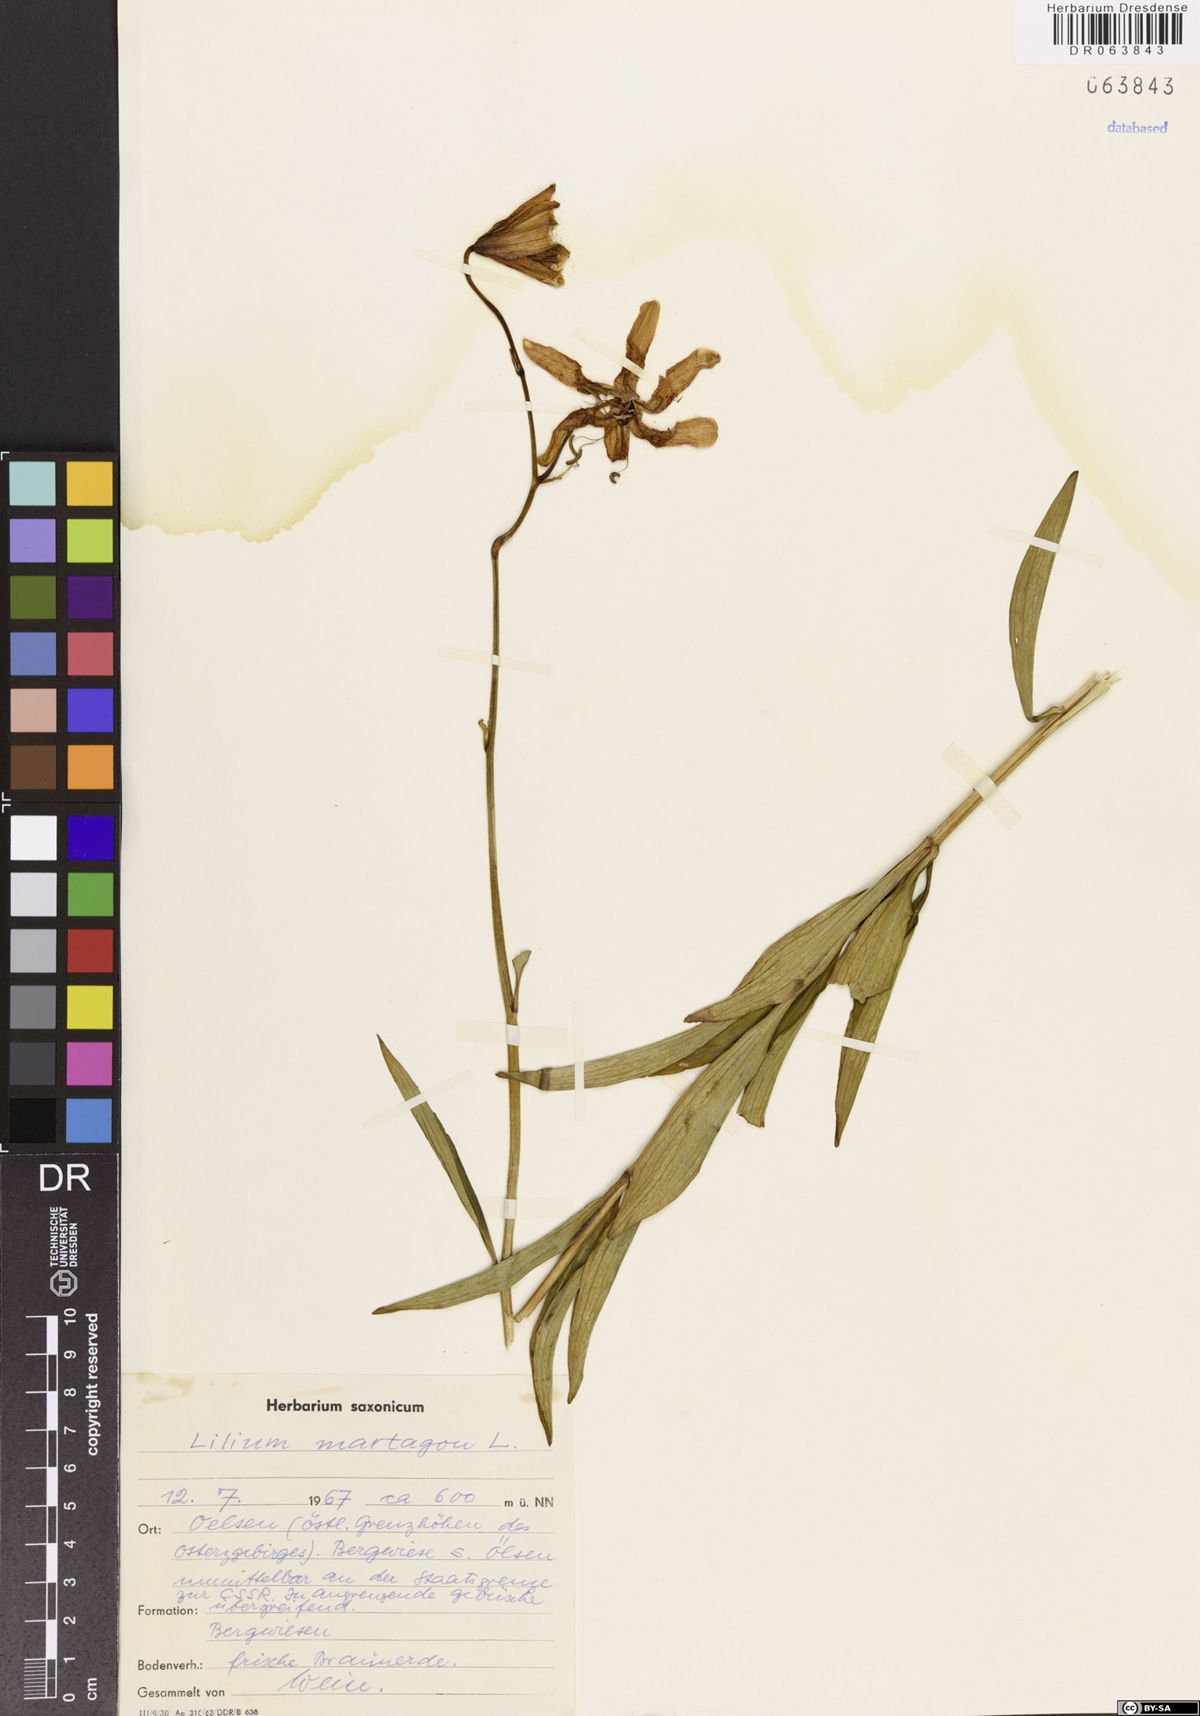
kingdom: Plantae
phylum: Tracheophyta
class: Liliopsida
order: Liliales
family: Liliaceae
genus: Lilium
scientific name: Lilium martagon
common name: Martagon lily
